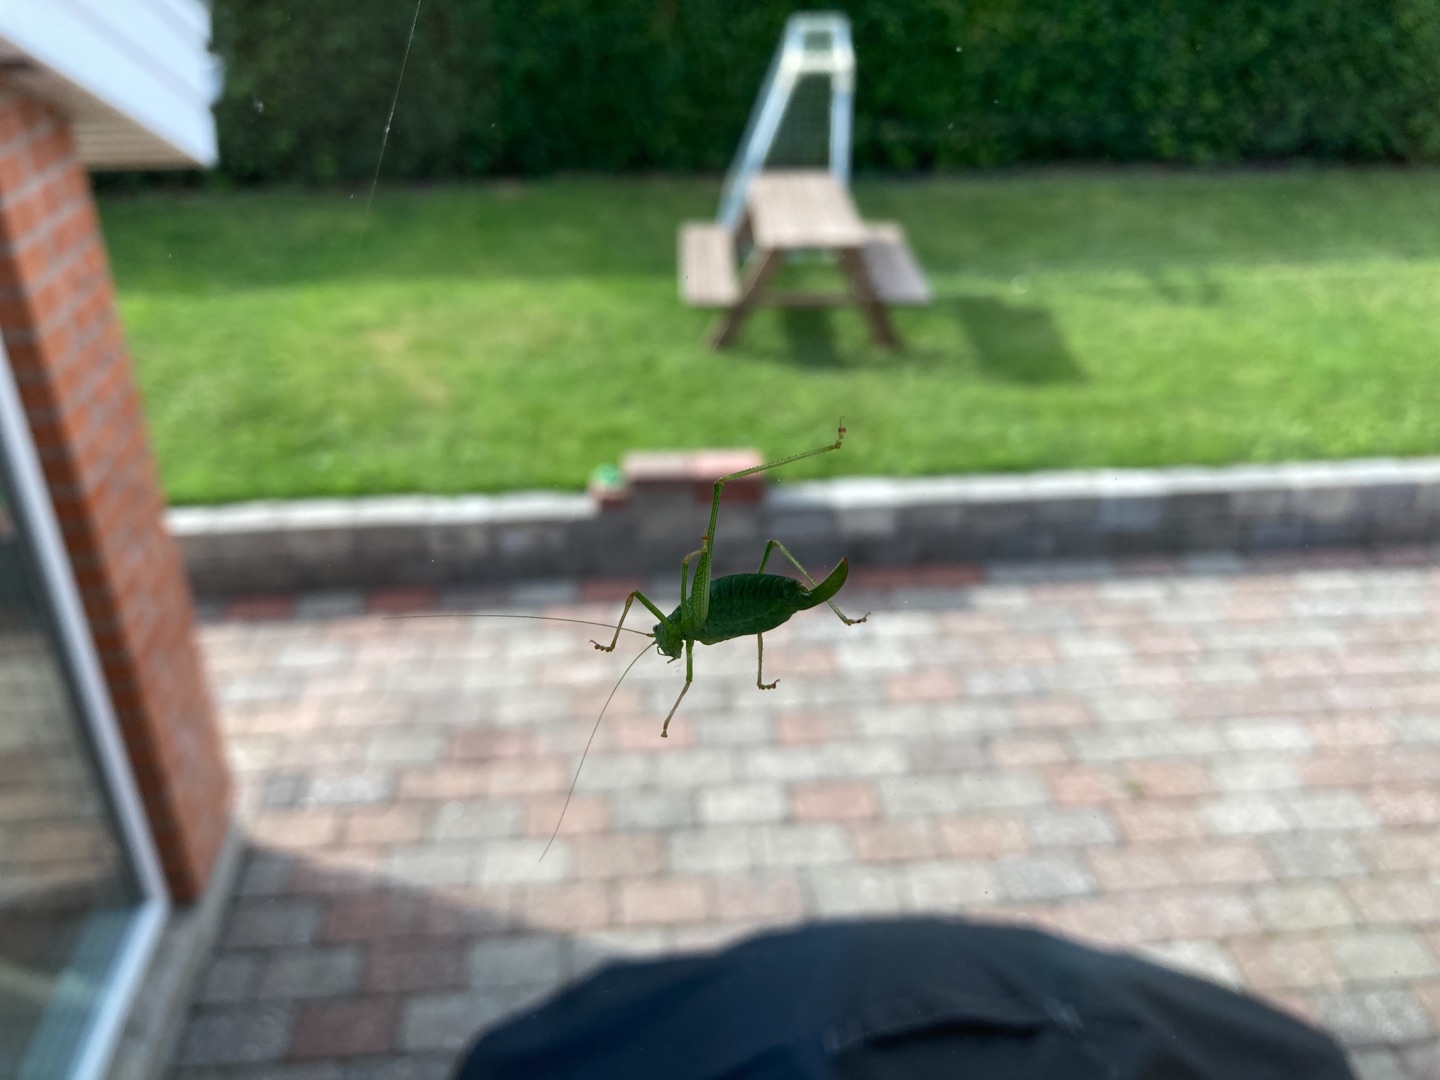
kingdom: Animalia
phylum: Arthropoda
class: Insecta
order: Orthoptera
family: Tettigoniidae
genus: Leptophyes
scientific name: Leptophyes punctatissima
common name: Krumknivgræshoppe
